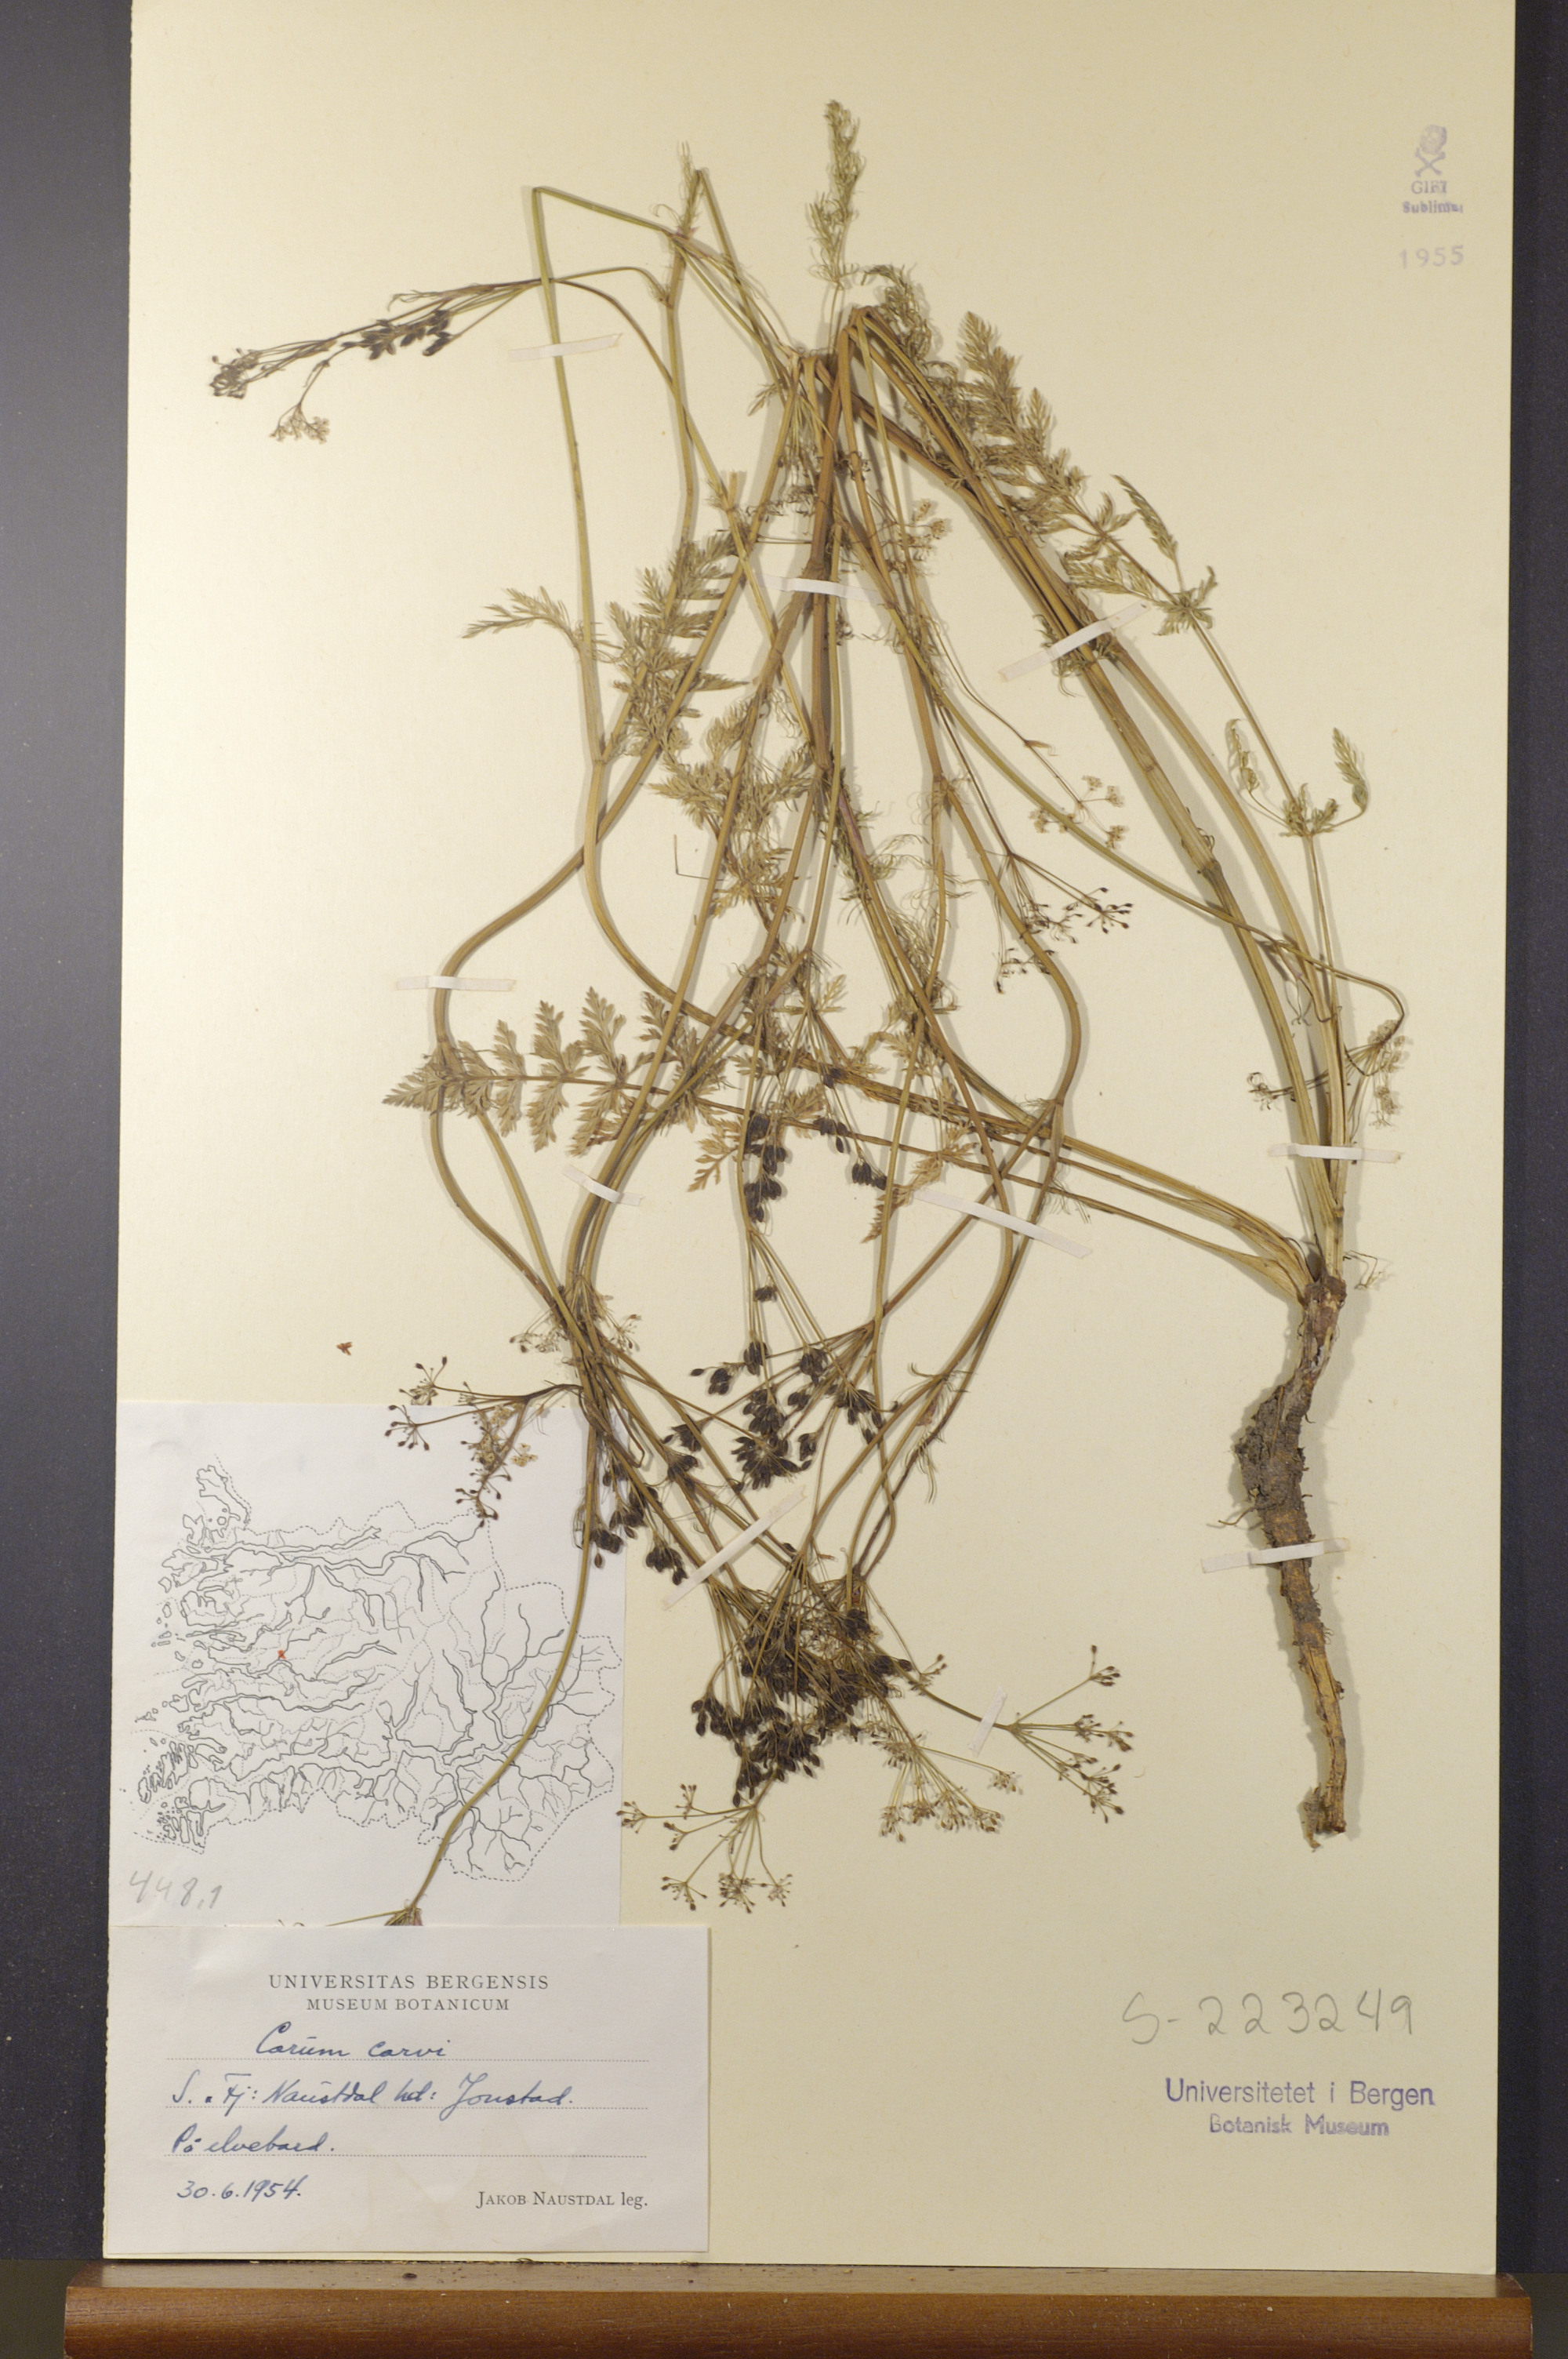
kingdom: Plantae
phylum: Tracheophyta
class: Magnoliopsida
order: Apiales
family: Apiaceae
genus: Carum
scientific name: Carum carvi
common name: Caraway
